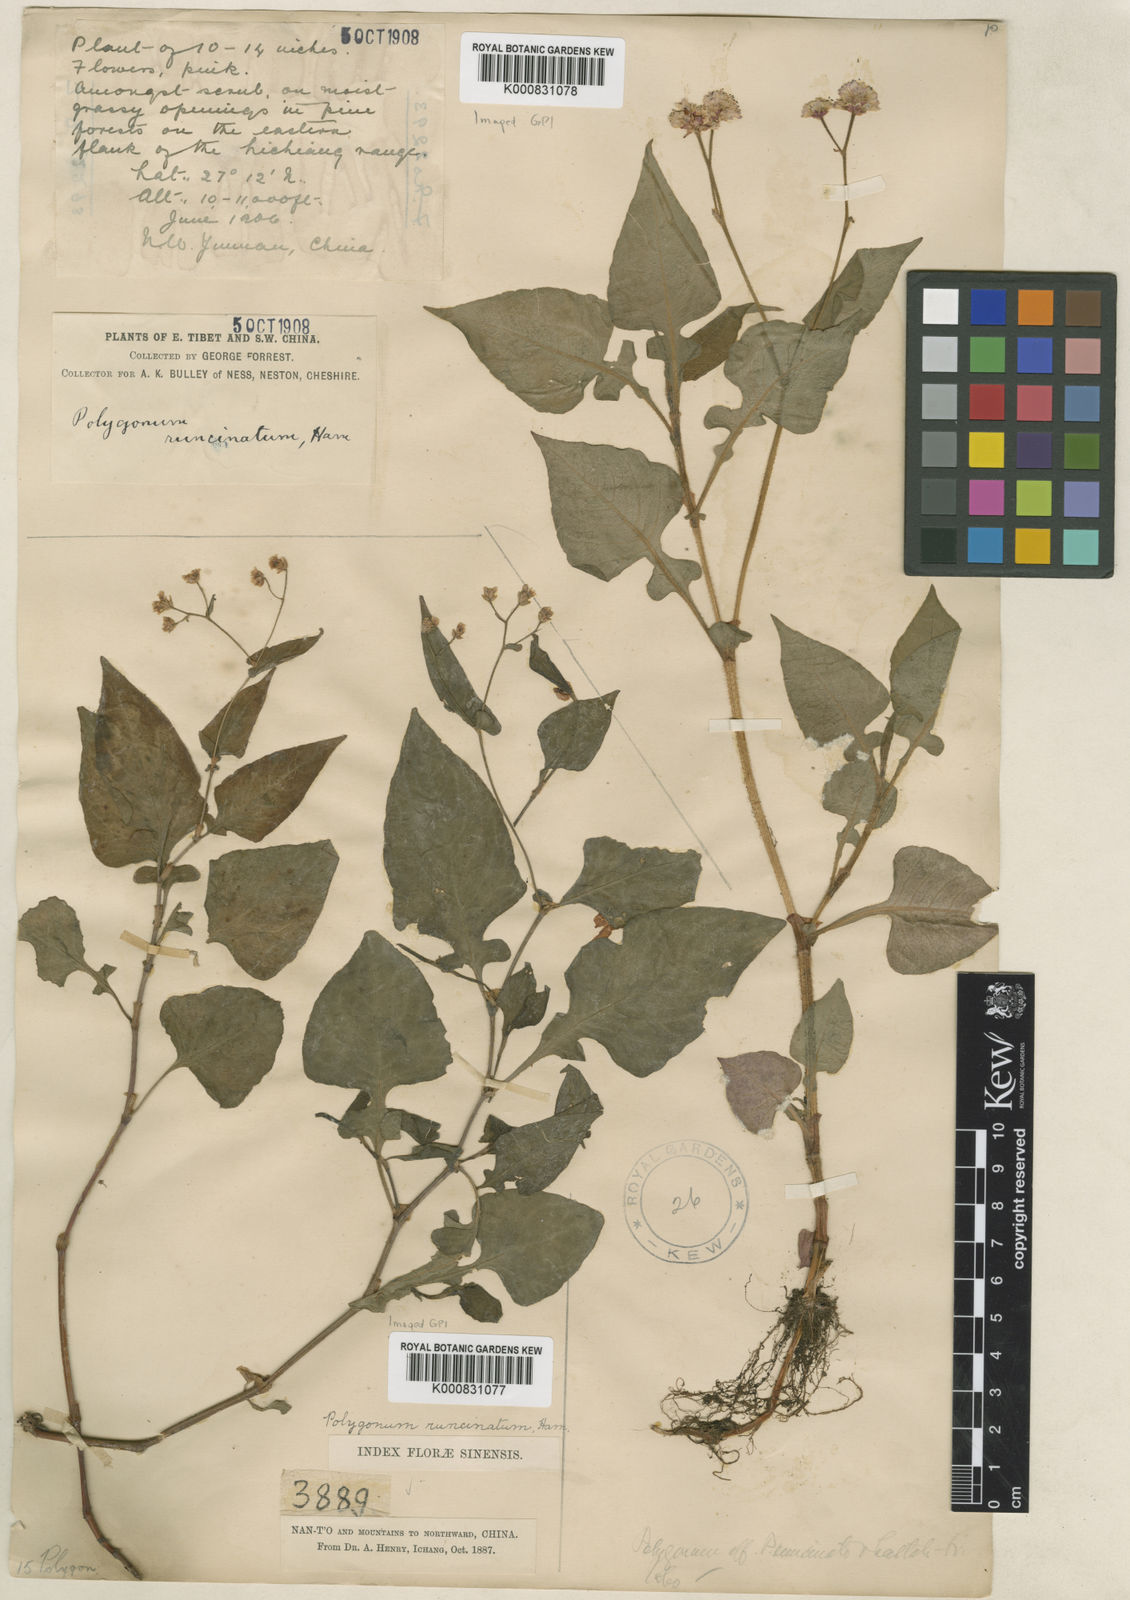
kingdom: Plantae
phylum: Tracheophyta
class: Magnoliopsida
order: Caryophyllales
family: Polygonaceae
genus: Persicaria
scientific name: Persicaria runcinata
